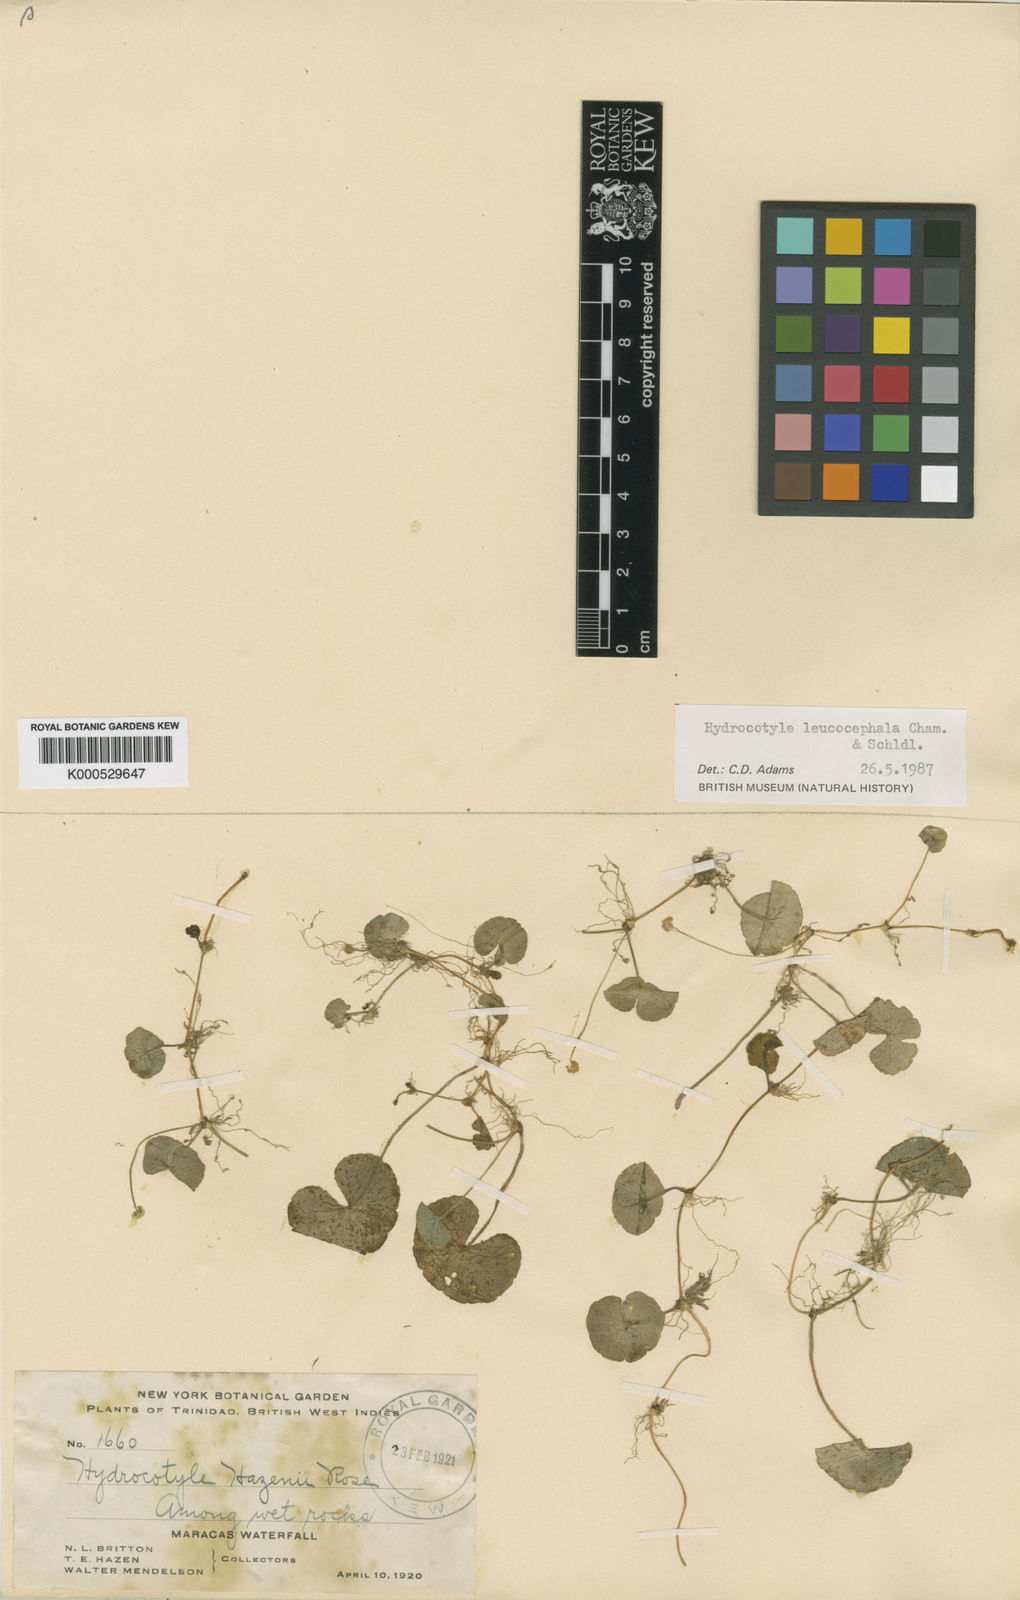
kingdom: Plantae
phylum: Tracheophyta
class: Magnoliopsida
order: Apiales
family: Araliaceae
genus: Hydrocotyle
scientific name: Hydrocotyle leucocephala
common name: Brazilian pennywort
